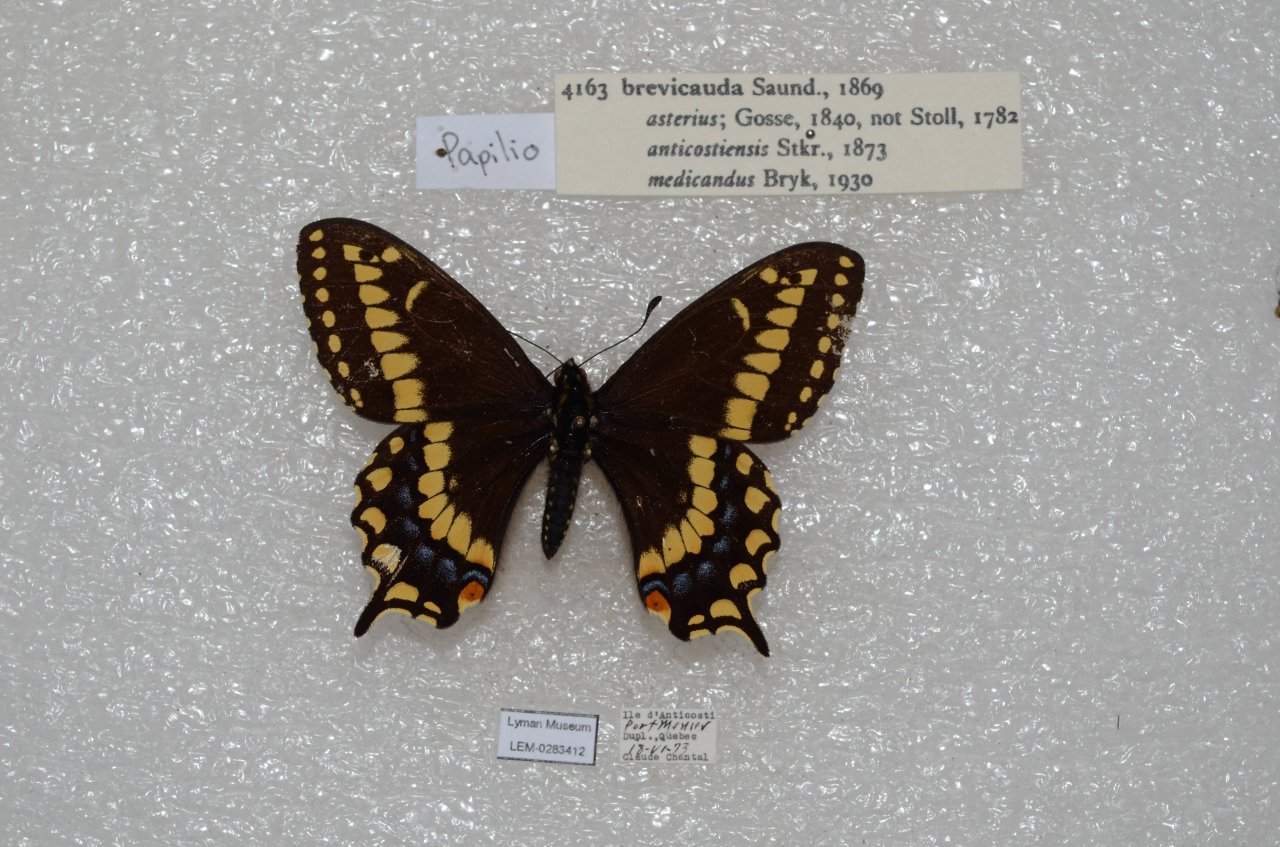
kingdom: Animalia
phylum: Arthropoda
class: Insecta
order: Lepidoptera
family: Papilionidae
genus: Papilio
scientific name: Papilio brevicauda
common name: Short-tailed Swallowtail
